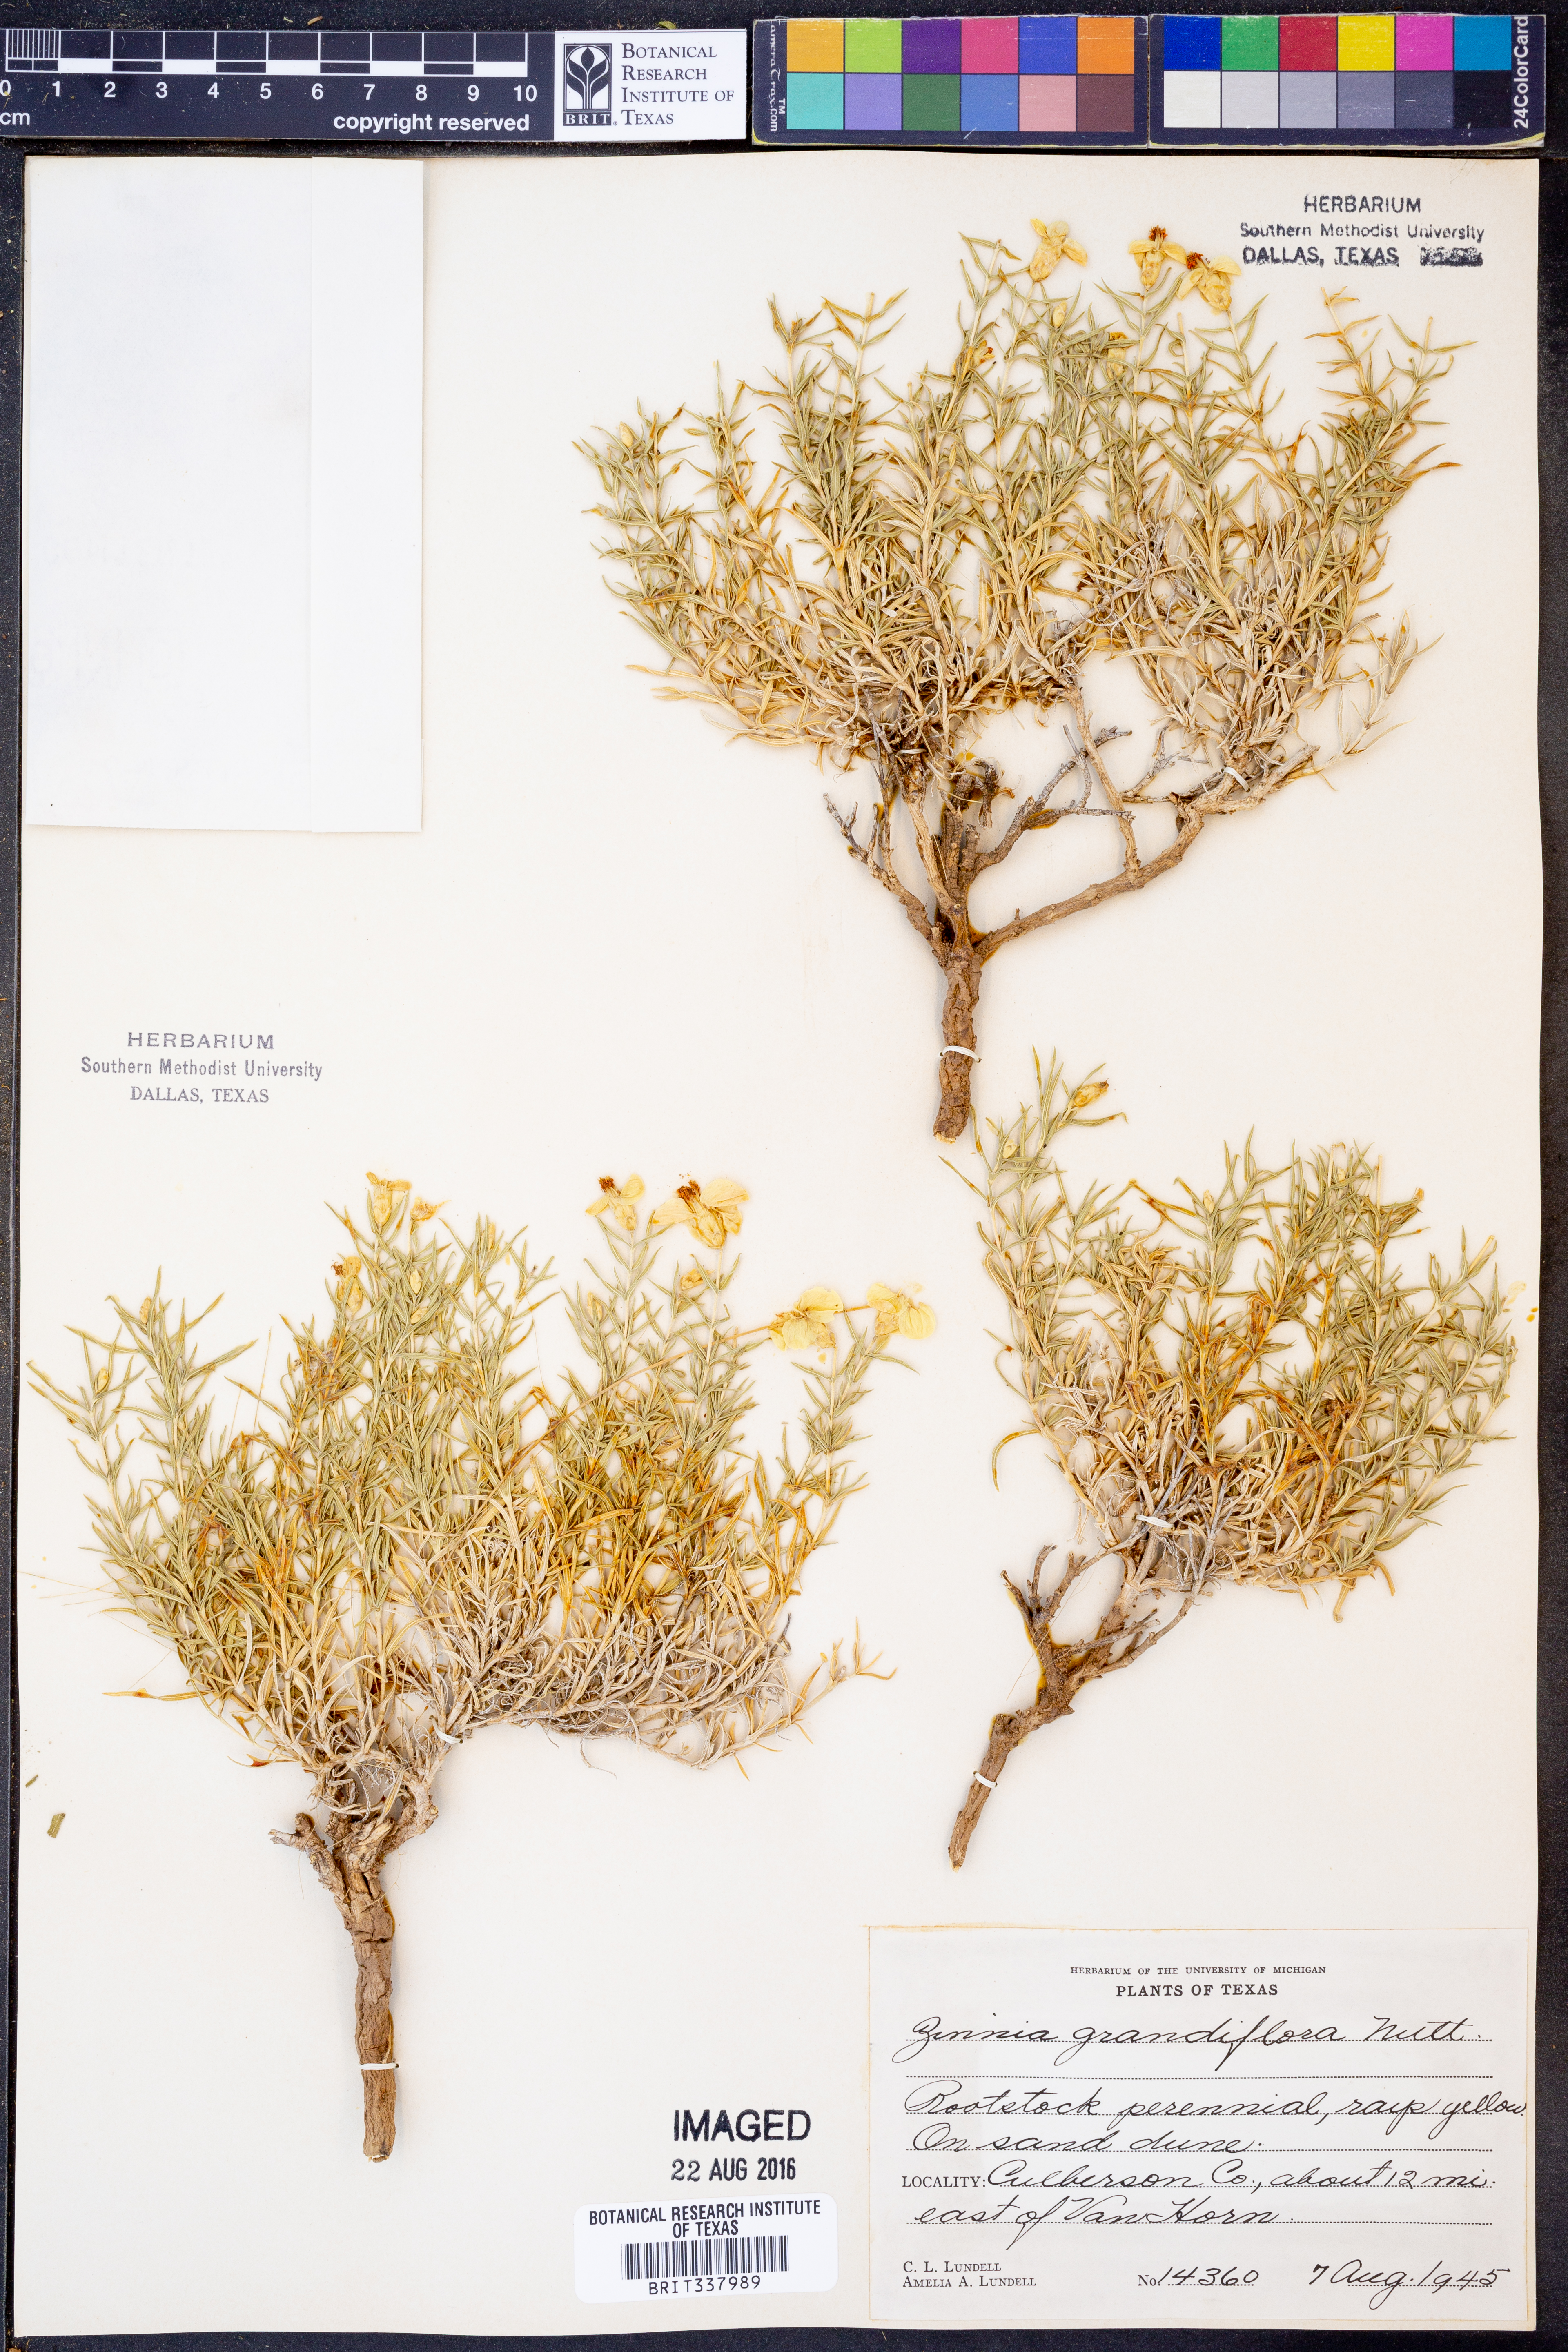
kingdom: Plantae
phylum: Tracheophyta
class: Magnoliopsida
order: Asterales
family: Asteraceae
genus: Zinnia
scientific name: Zinnia grandiflora
